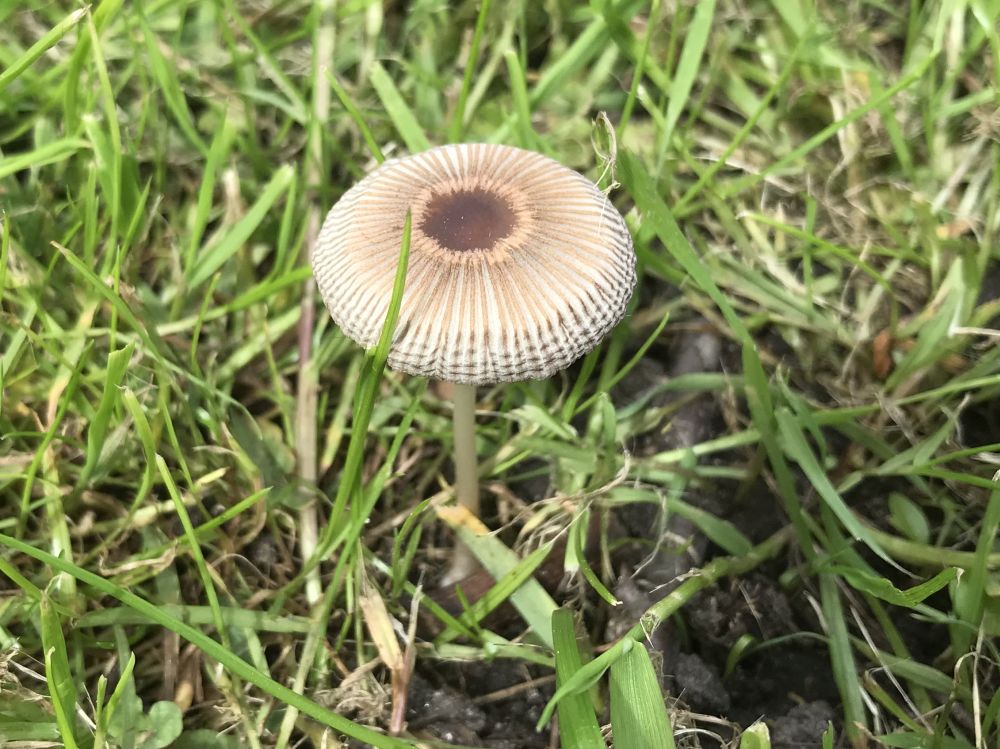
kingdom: Fungi
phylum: Basidiomycota
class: Agaricomycetes
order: Agaricales
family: Psathyrellaceae
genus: Parasola
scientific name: Parasola
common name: hjulhat
